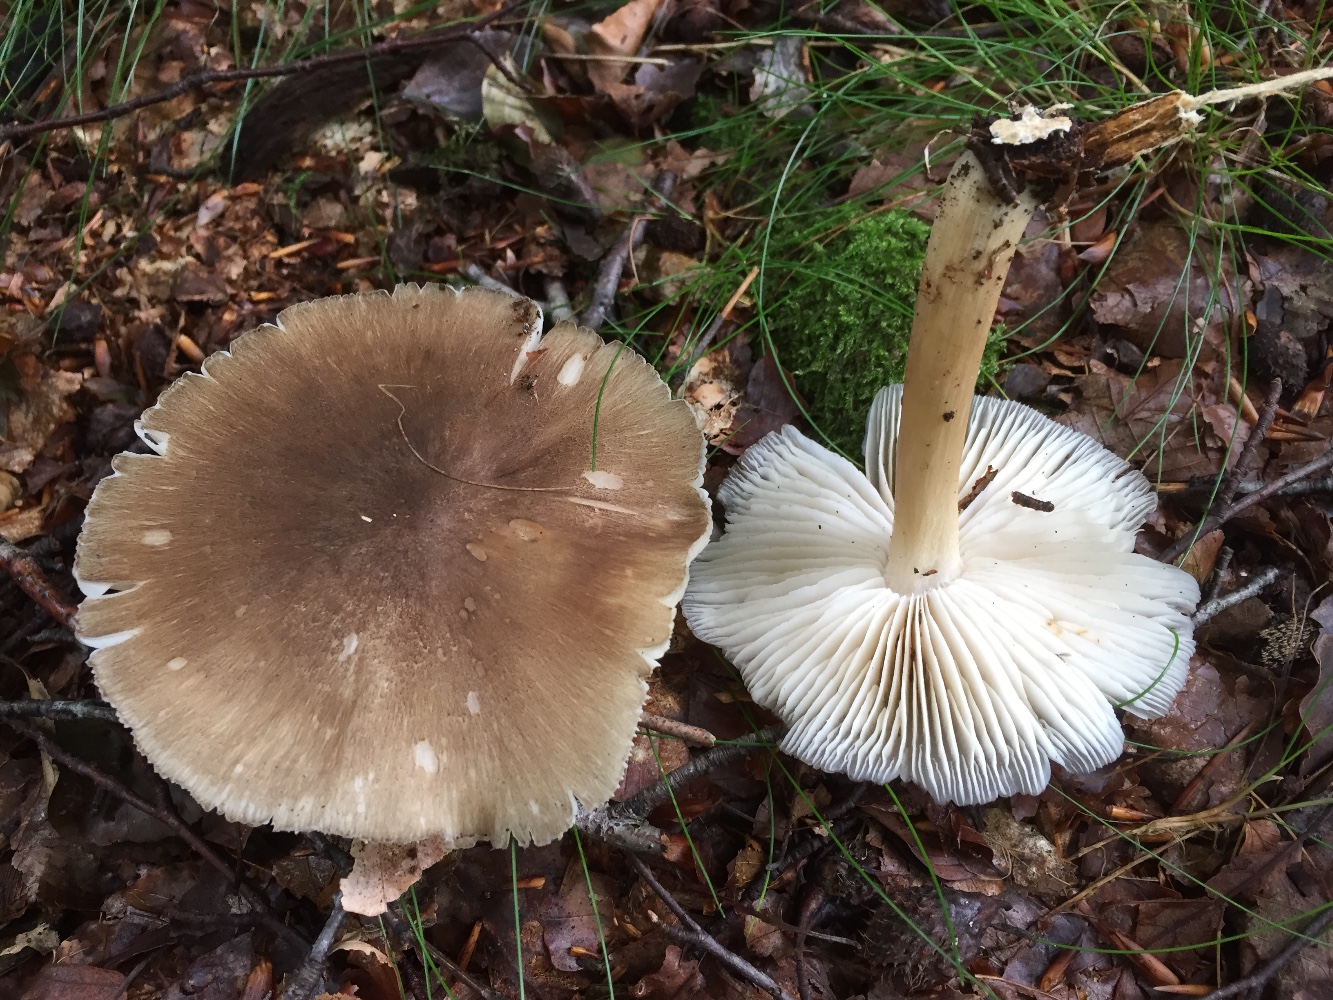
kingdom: Fungi
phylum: Basidiomycota
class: Agaricomycetes
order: Agaricales
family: Tricholomataceae
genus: Megacollybia
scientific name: Megacollybia platyphylla
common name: bredbladet væbnerhat
